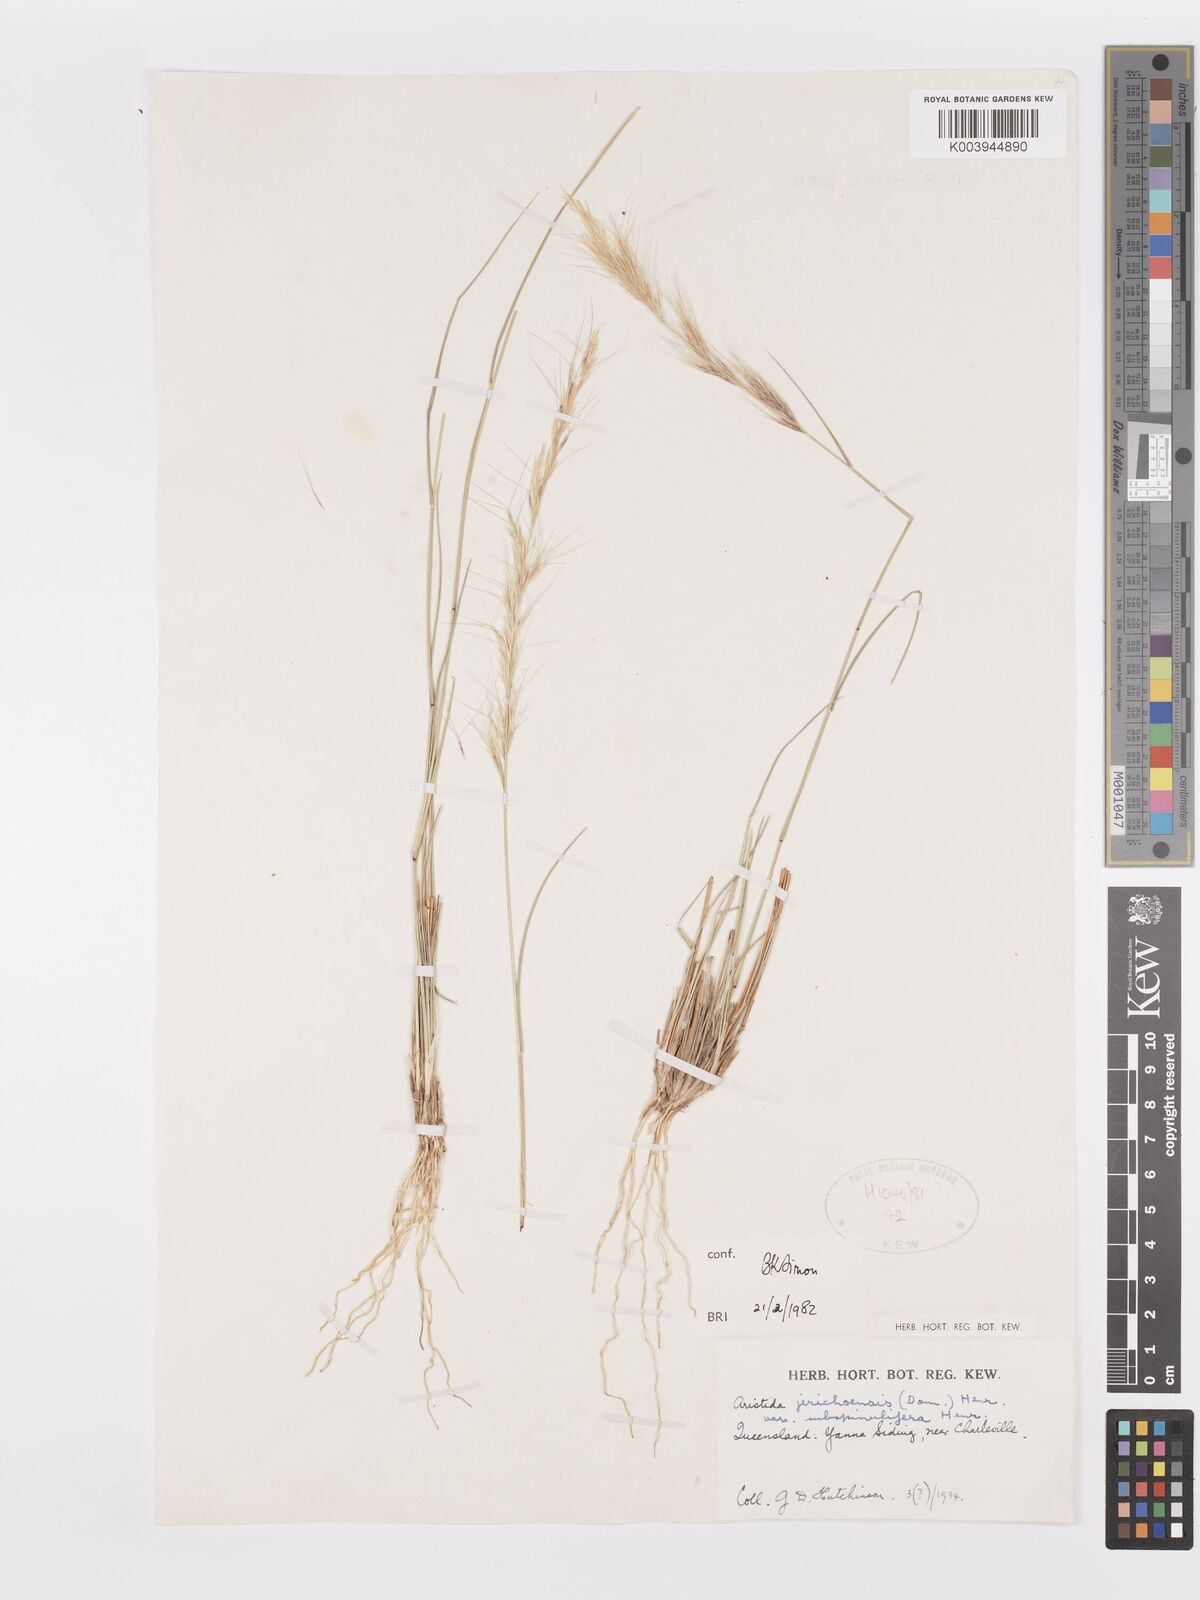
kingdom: Plantae
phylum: Tracheophyta
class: Liliopsida
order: Poales
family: Poaceae
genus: Aristida
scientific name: Aristida jerichoensis
